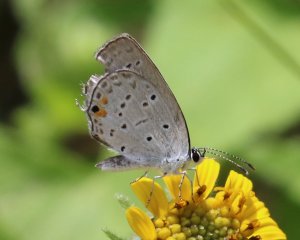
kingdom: Animalia
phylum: Arthropoda
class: Insecta
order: Lepidoptera
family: Lycaenidae
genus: Elkalyce
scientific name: Elkalyce comyntas
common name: Eastern Tailed-Blue
